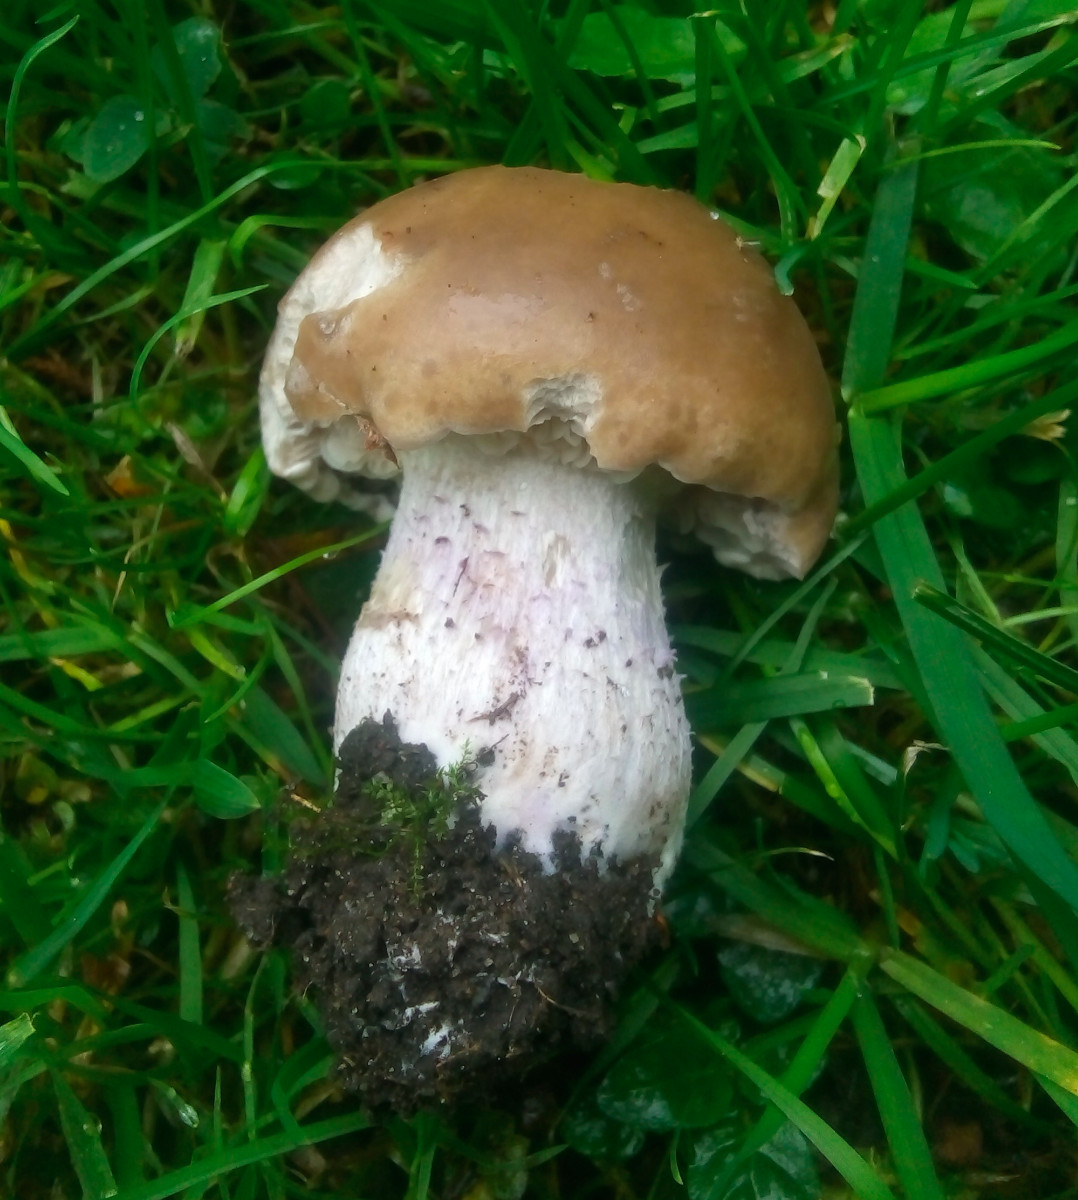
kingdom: Fungi
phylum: Basidiomycota
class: Agaricomycetes
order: Agaricales
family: Tricholomataceae
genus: Lepista
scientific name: Lepista personata
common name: bleg hekseringshat
